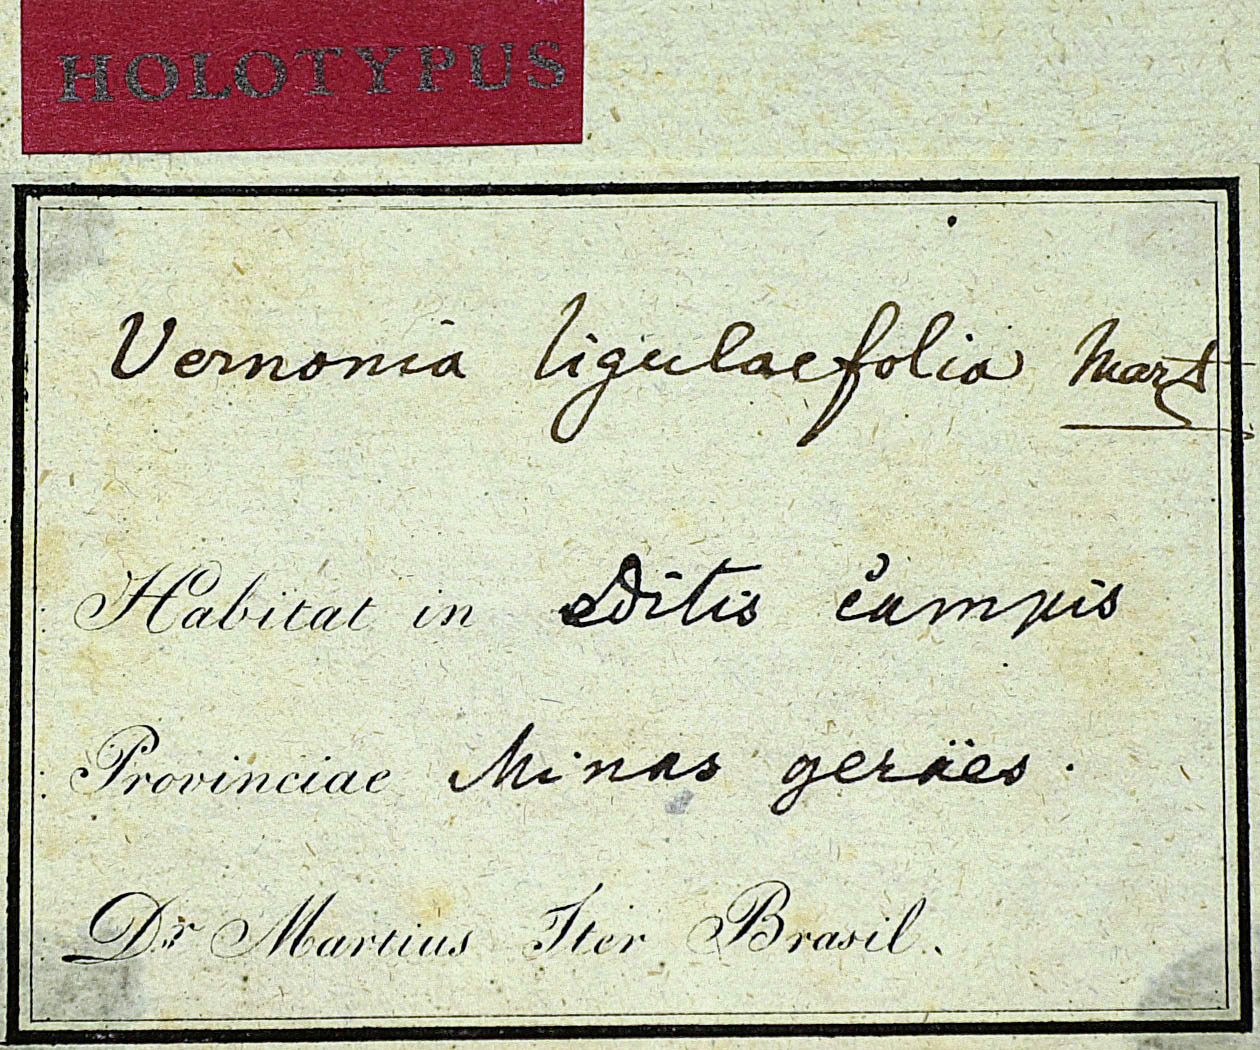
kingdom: Plantae
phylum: Tracheophyta
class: Magnoliopsida
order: Asterales
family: Asteraceae
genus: Lessingianthus
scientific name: Lessingianthus ligulifolius
